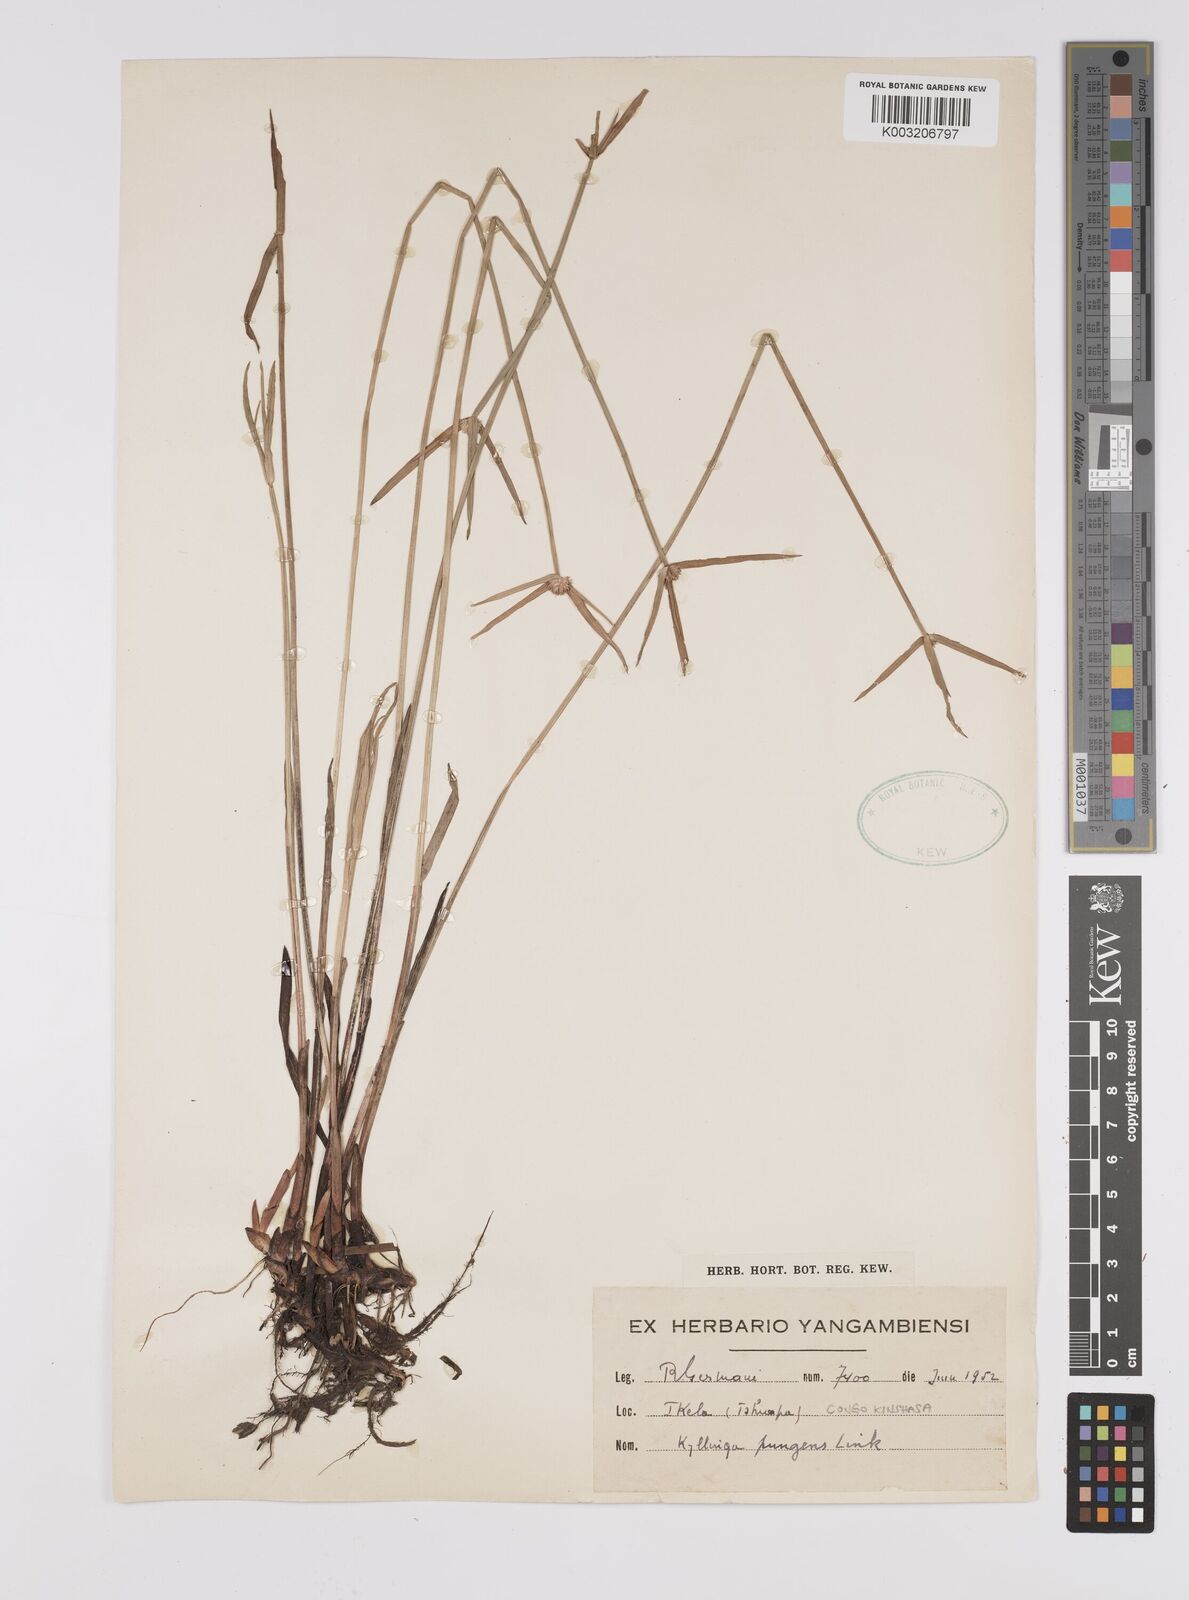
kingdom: Plantae
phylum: Tracheophyta
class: Liliopsida
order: Poales
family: Cyperaceae
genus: Cyperus
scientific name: Cyperus
